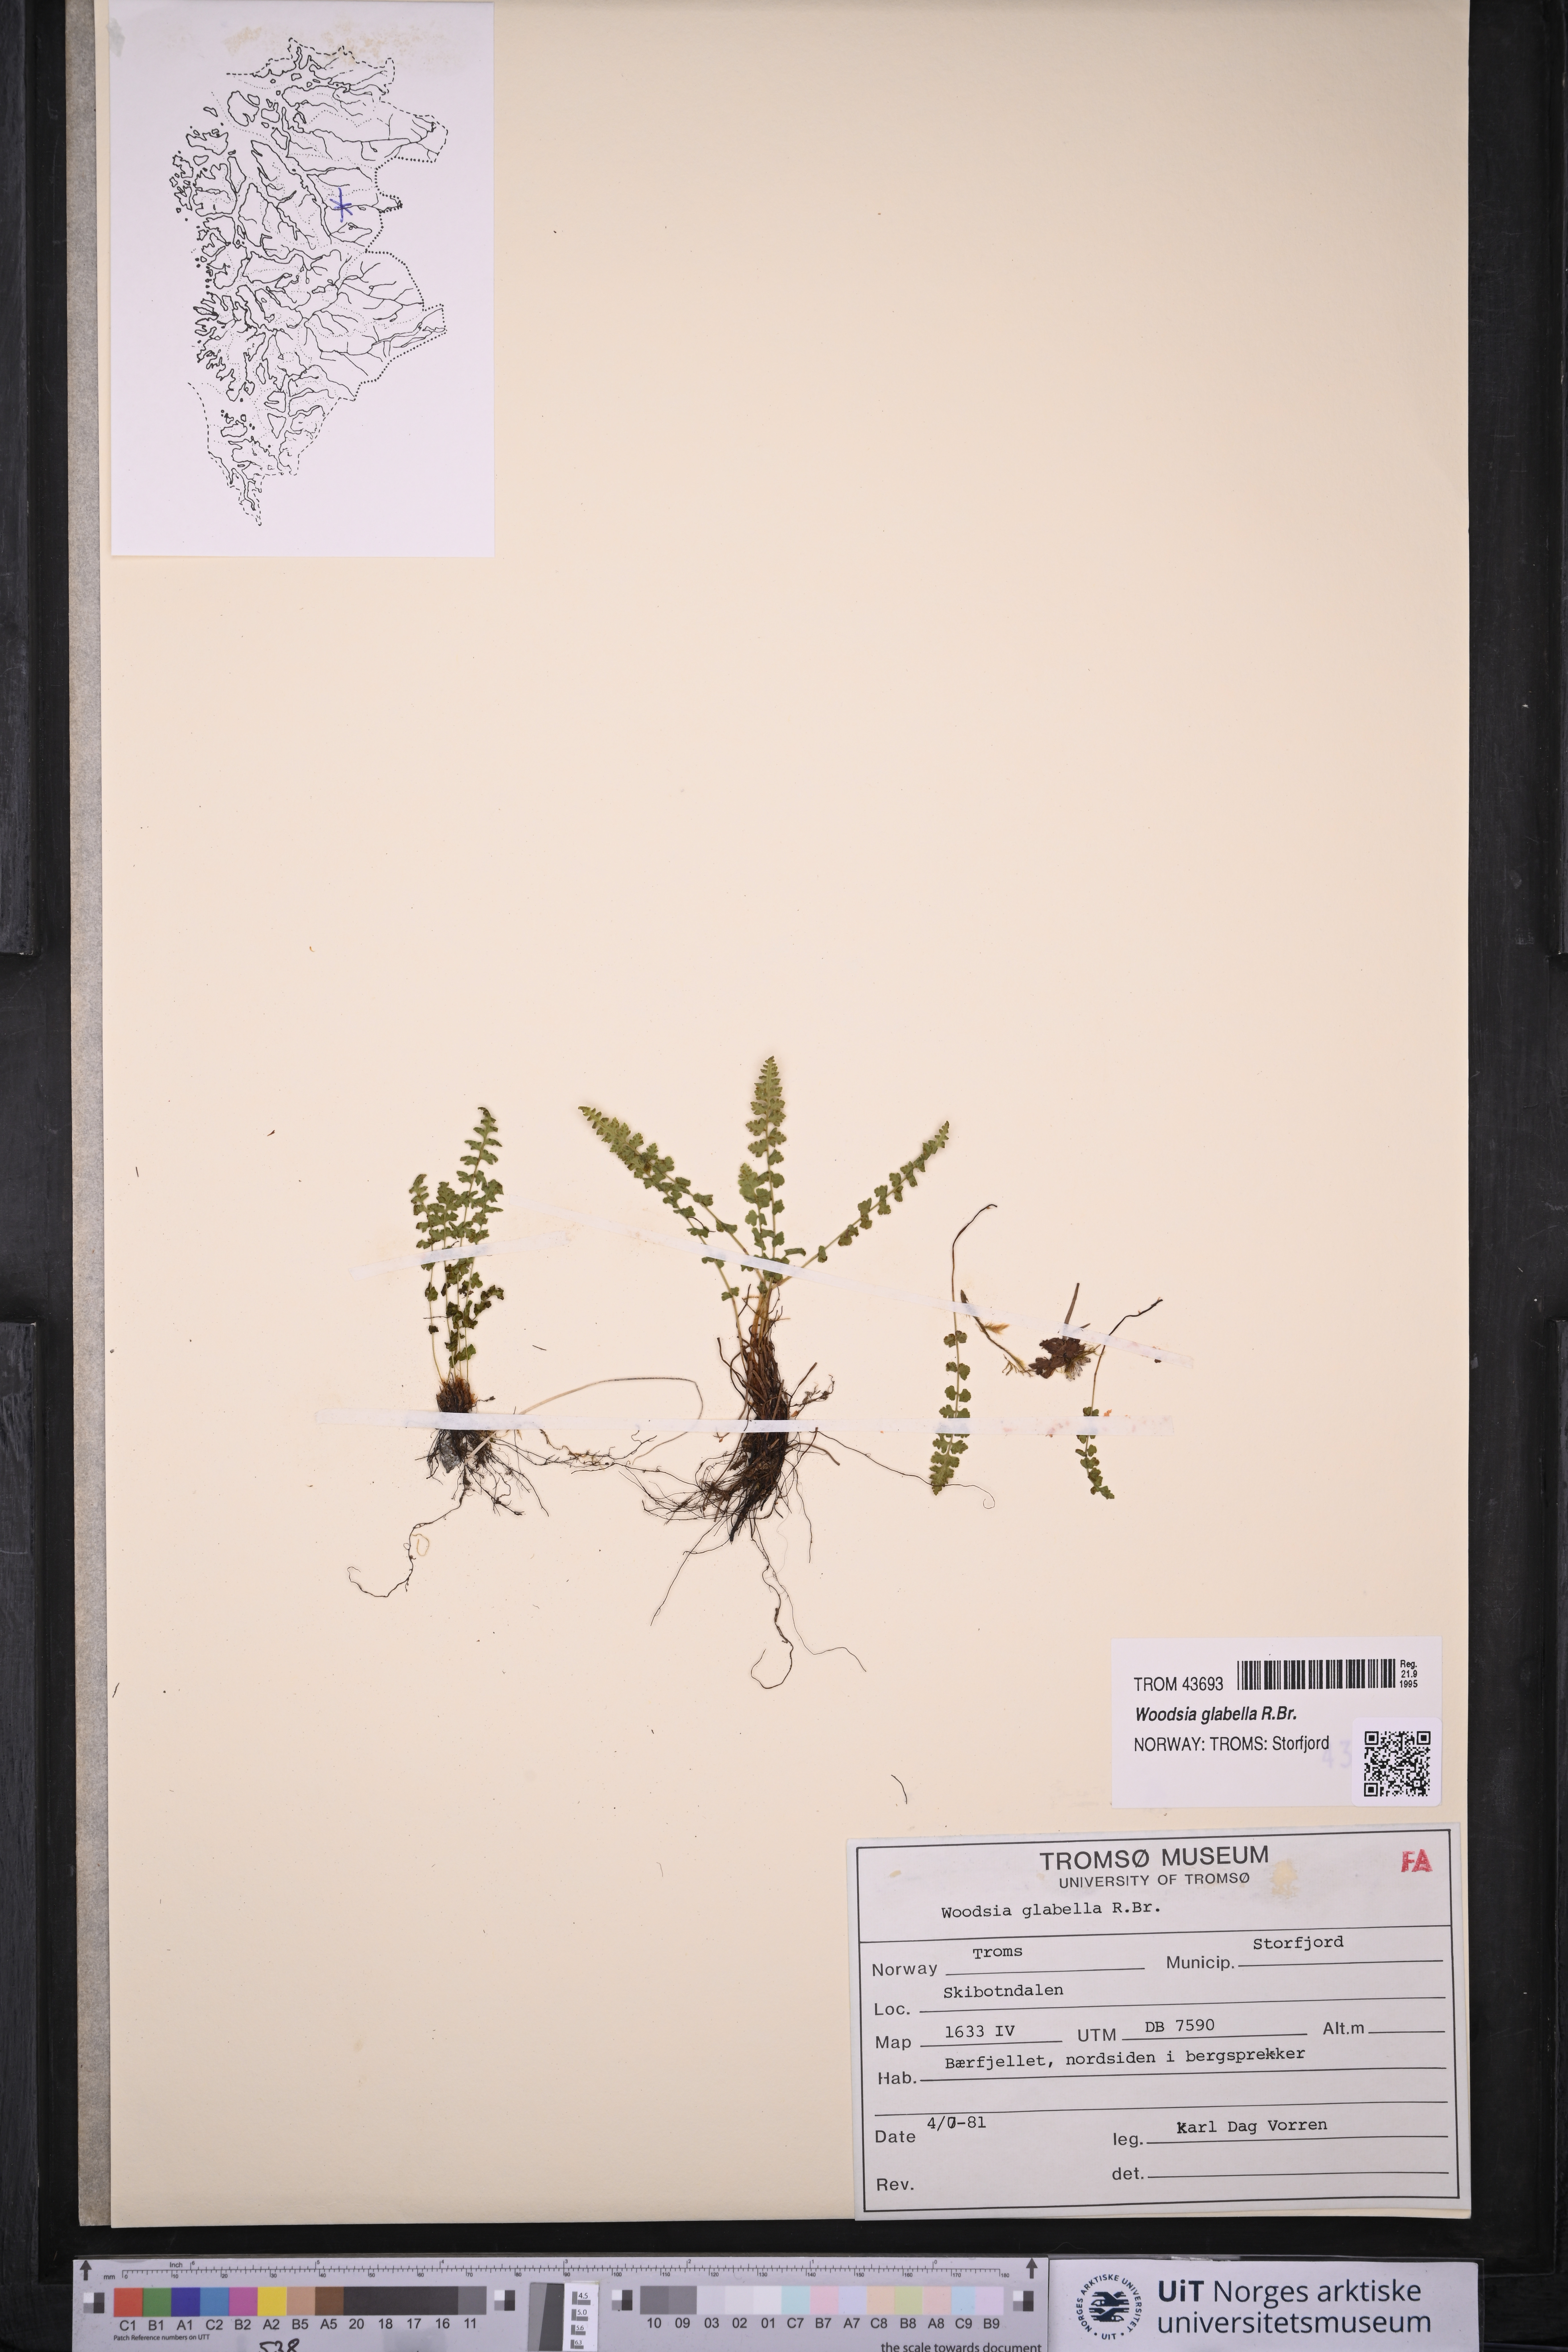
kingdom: Plantae
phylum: Tracheophyta
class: Polypodiopsida
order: Polypodiales
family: Woodsiaceae
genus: Woodsia
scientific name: Woodsia glabella
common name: Smooth woodsia
